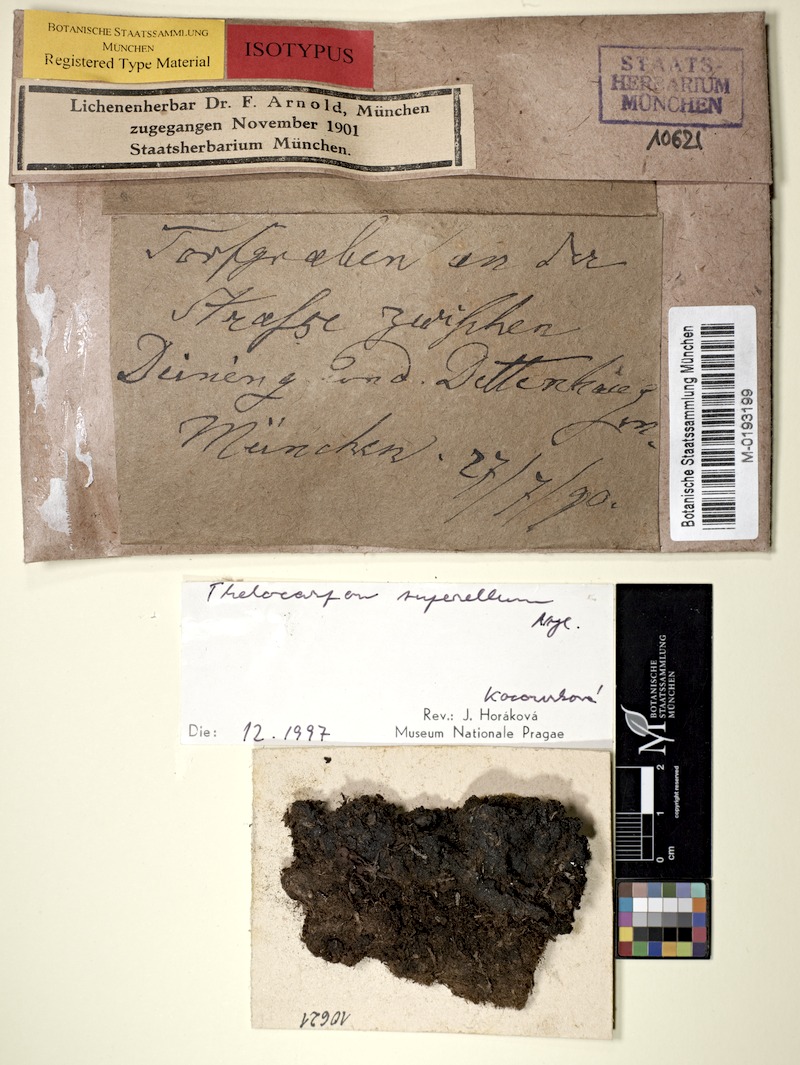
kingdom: Fungi
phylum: Ascomycota
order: Thelocarpales
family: Thelocarpaceae
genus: Thelocarpon
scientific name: Thelocarpon superellum
